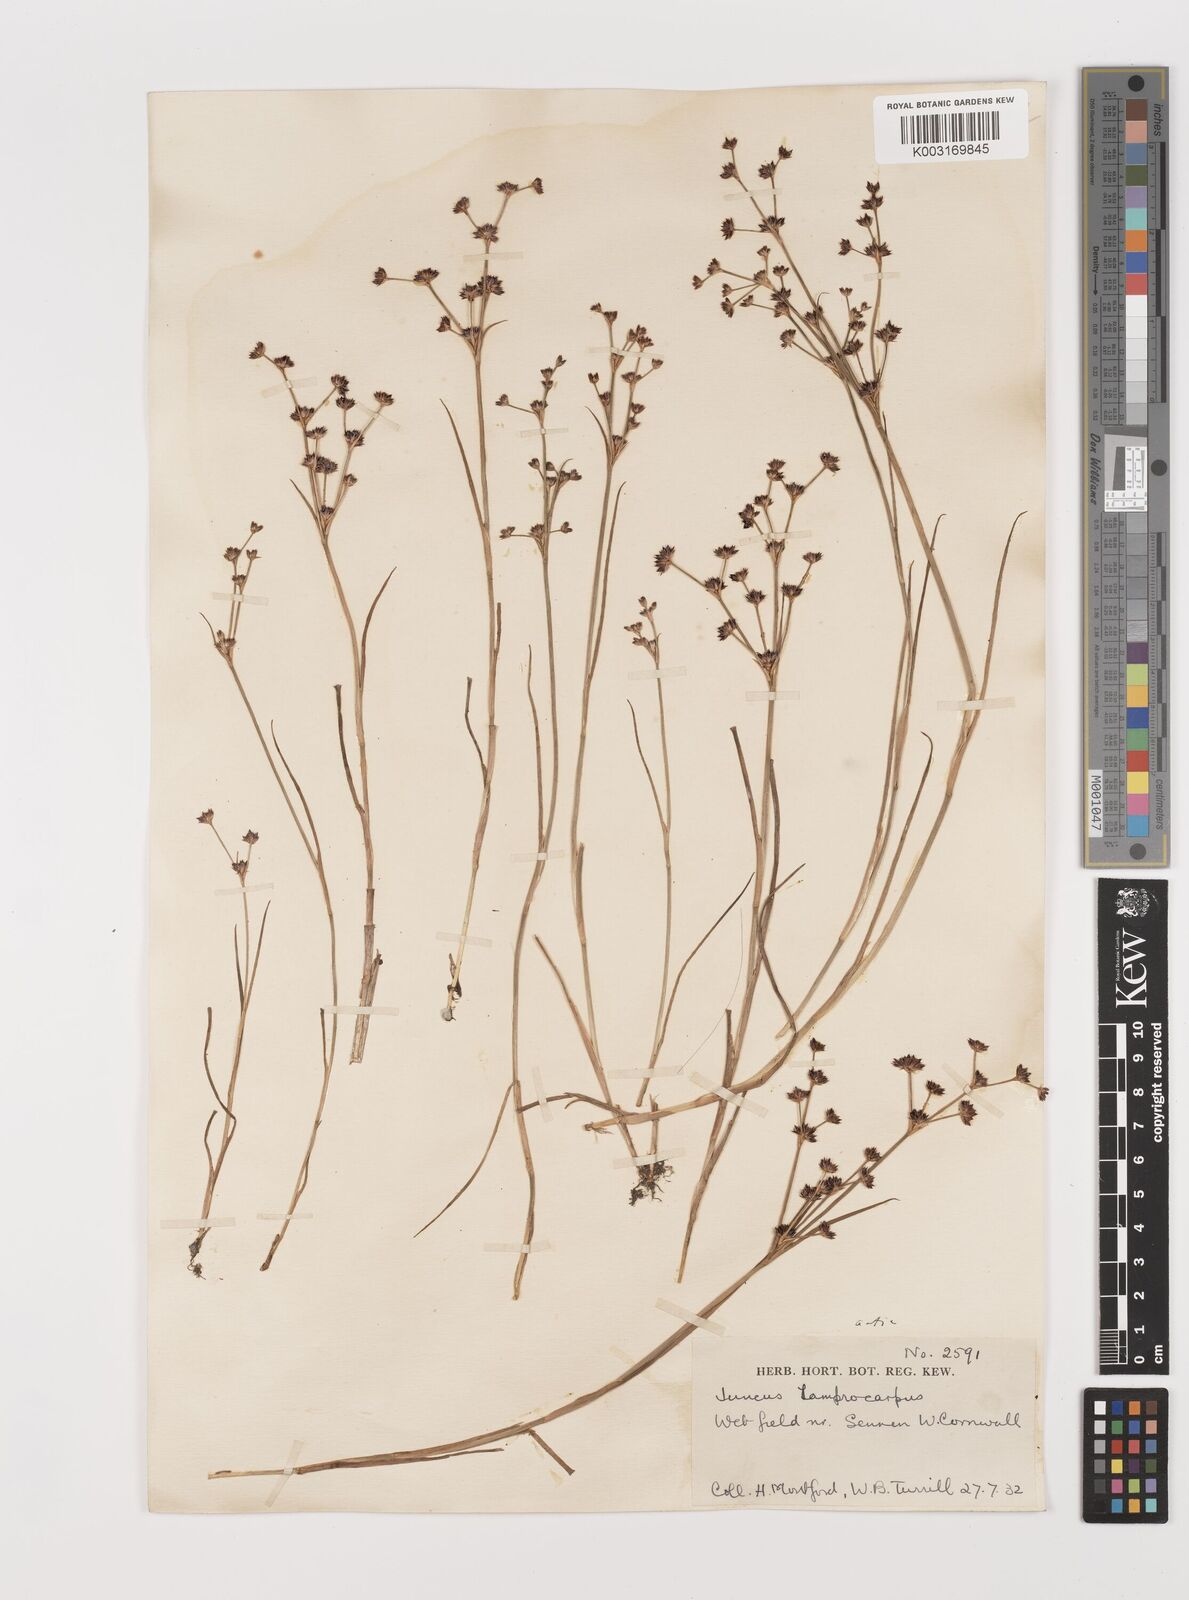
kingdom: Plantae
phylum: Tracheophyta
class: Liliopsida
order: Poales
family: Juncaceae
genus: Juncus
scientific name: Juncus articulatus
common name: Jointed rush
